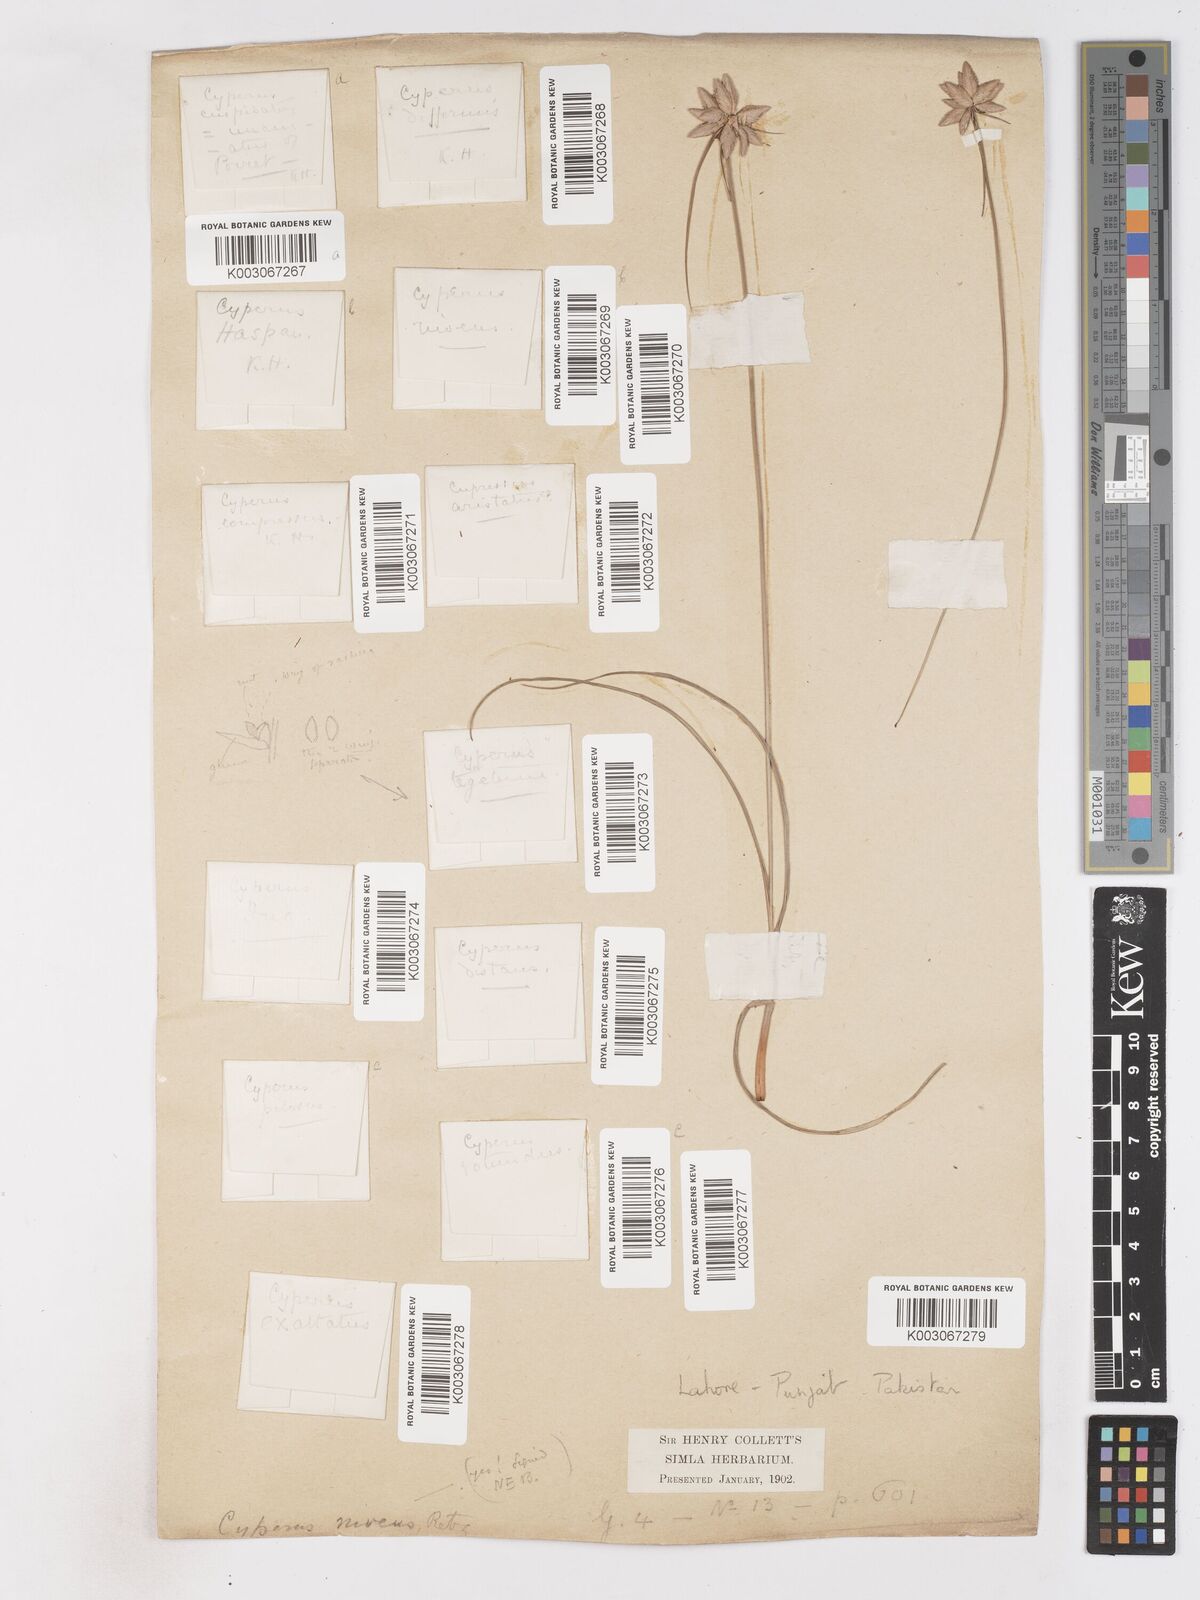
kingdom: Plantae
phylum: Tracheophyta
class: Liliopsida
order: Poales
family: Cyperaceae
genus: Cyperus
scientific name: Cyperus niveus
